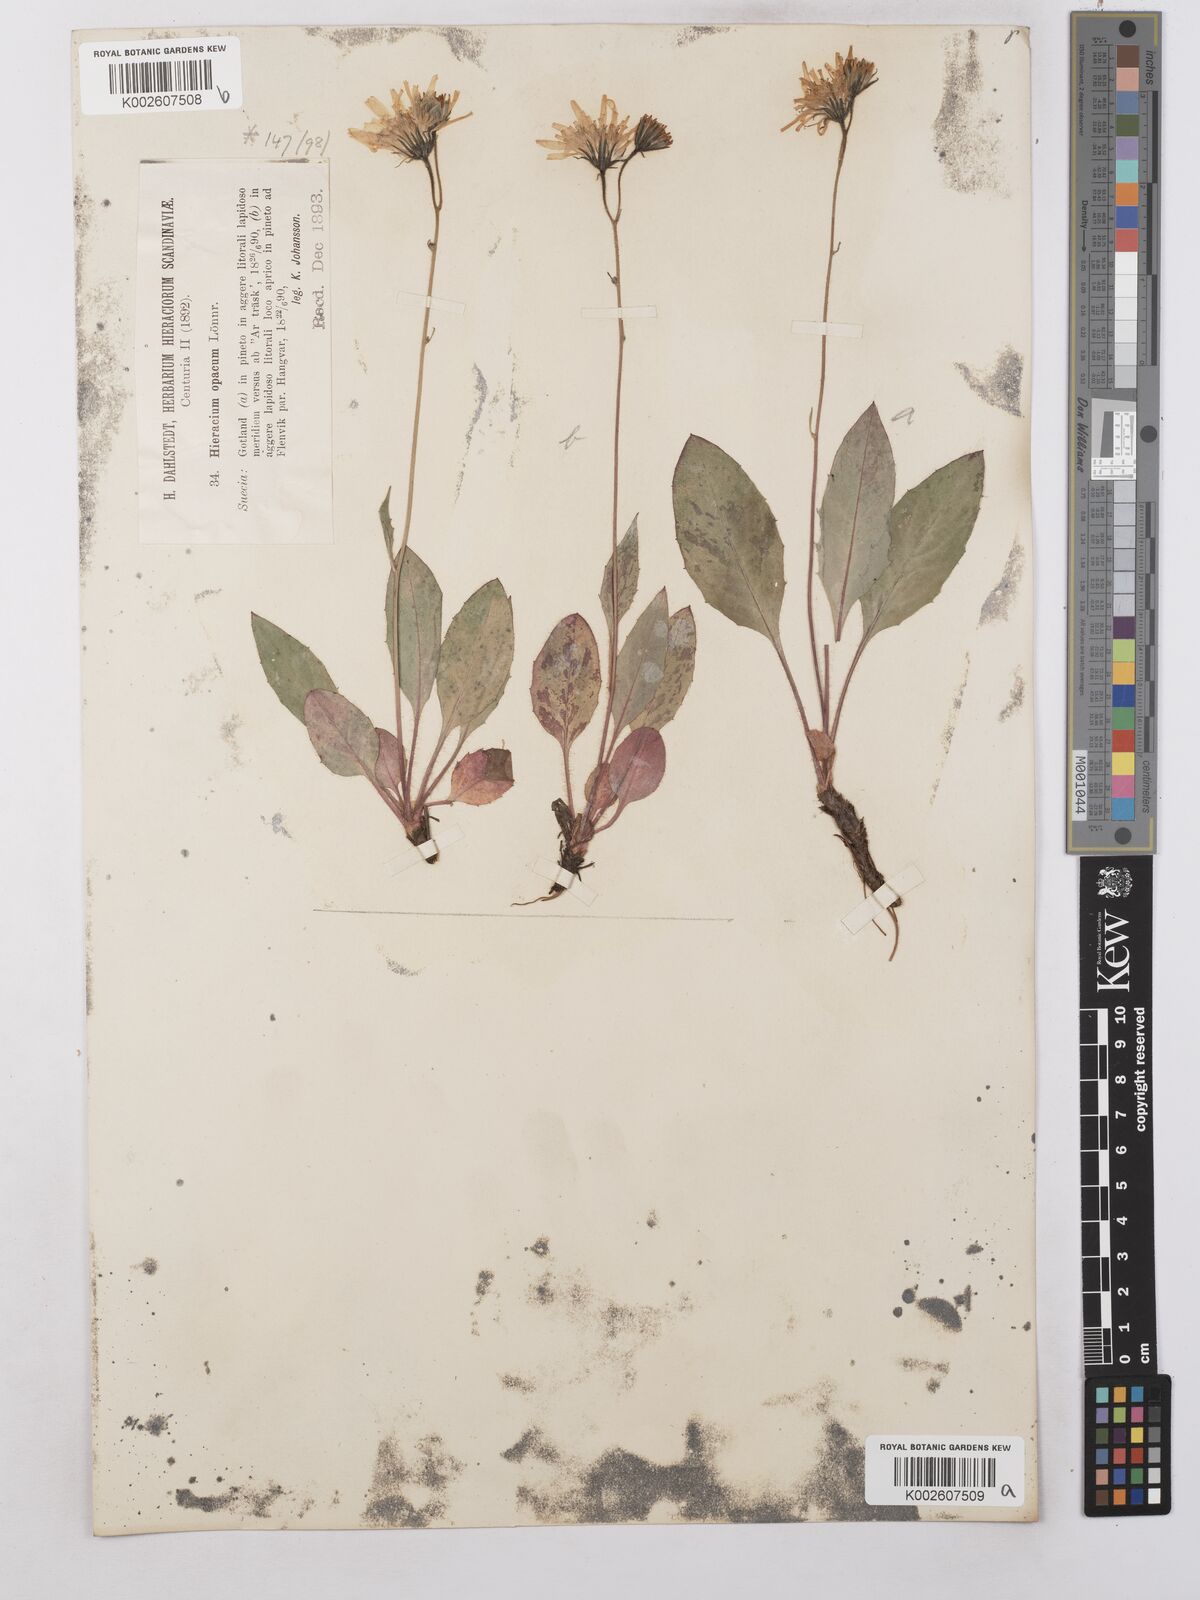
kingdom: Plantae
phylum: Tracheophyta
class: Magnoliopsida
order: Asterales
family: Asteraceae
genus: Hieracium
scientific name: Hieracium caesium
